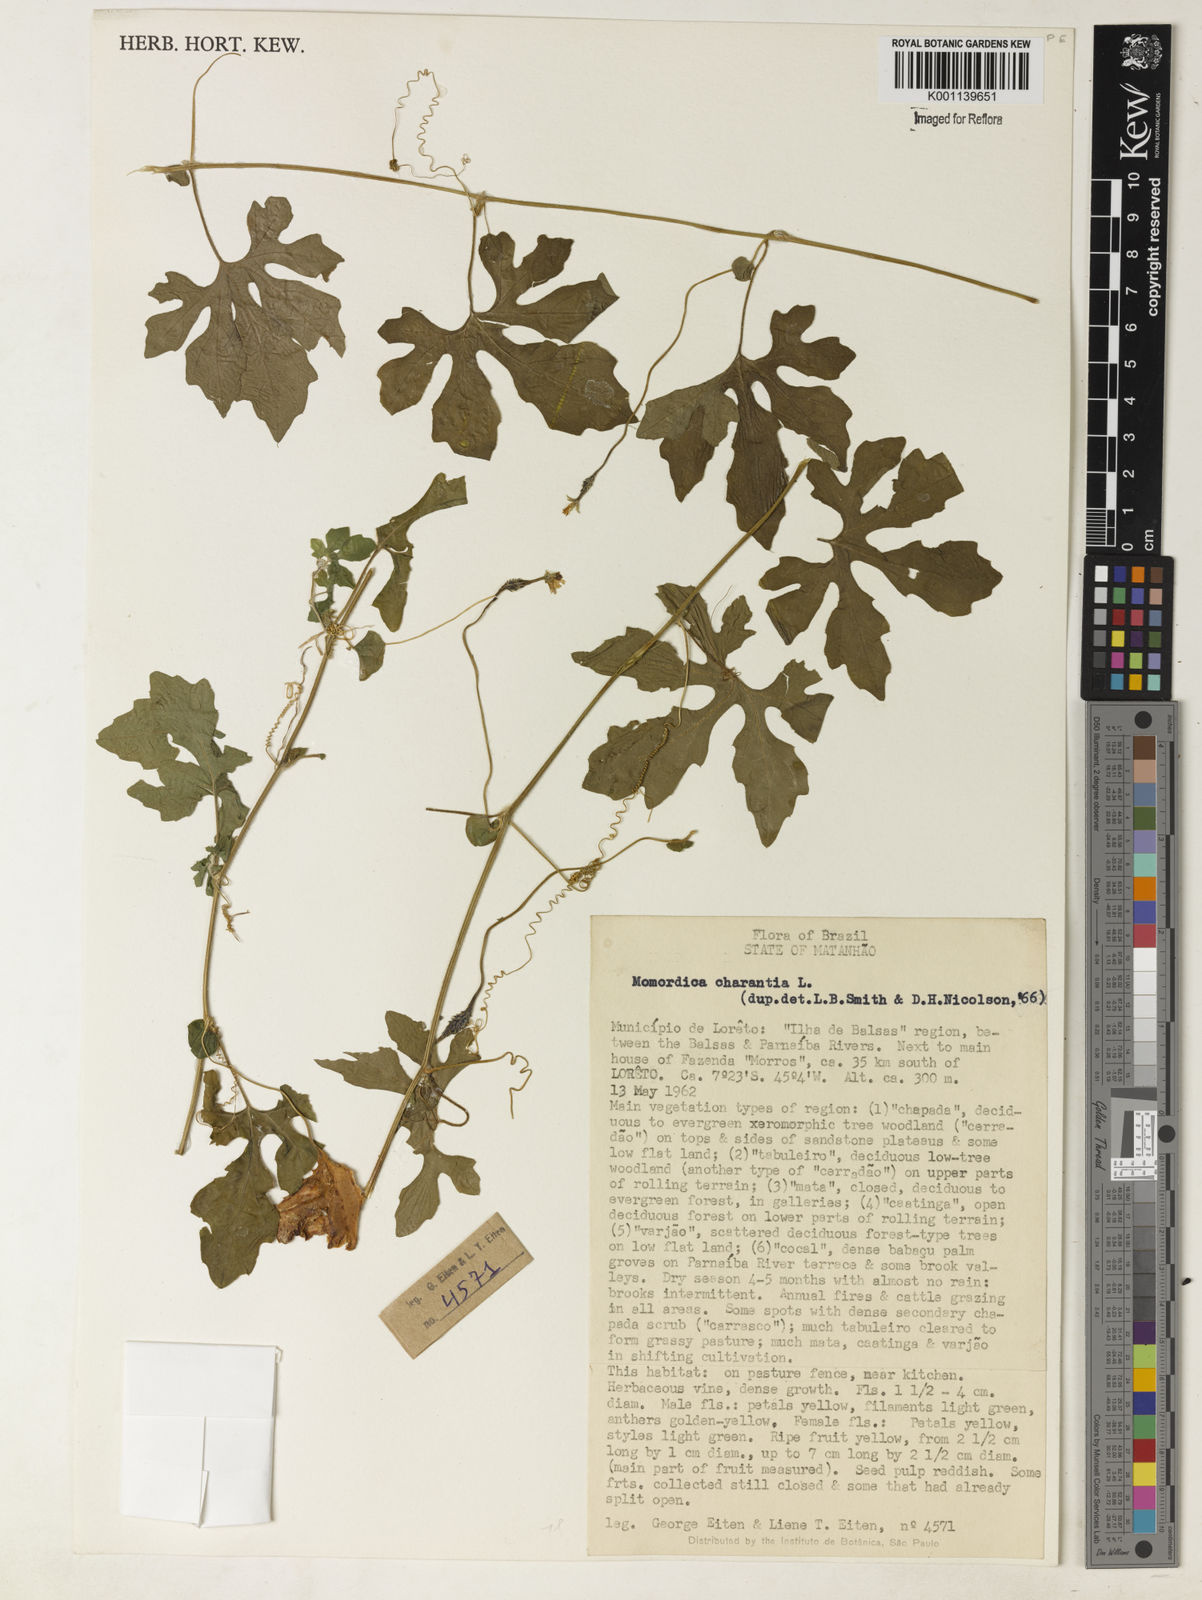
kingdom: Plantae
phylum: Tracheophyta
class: Magnoliopsida
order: Cucurbitales
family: Cucurbitaceae
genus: Momordica
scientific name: Momordica charantia
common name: Balsampear
